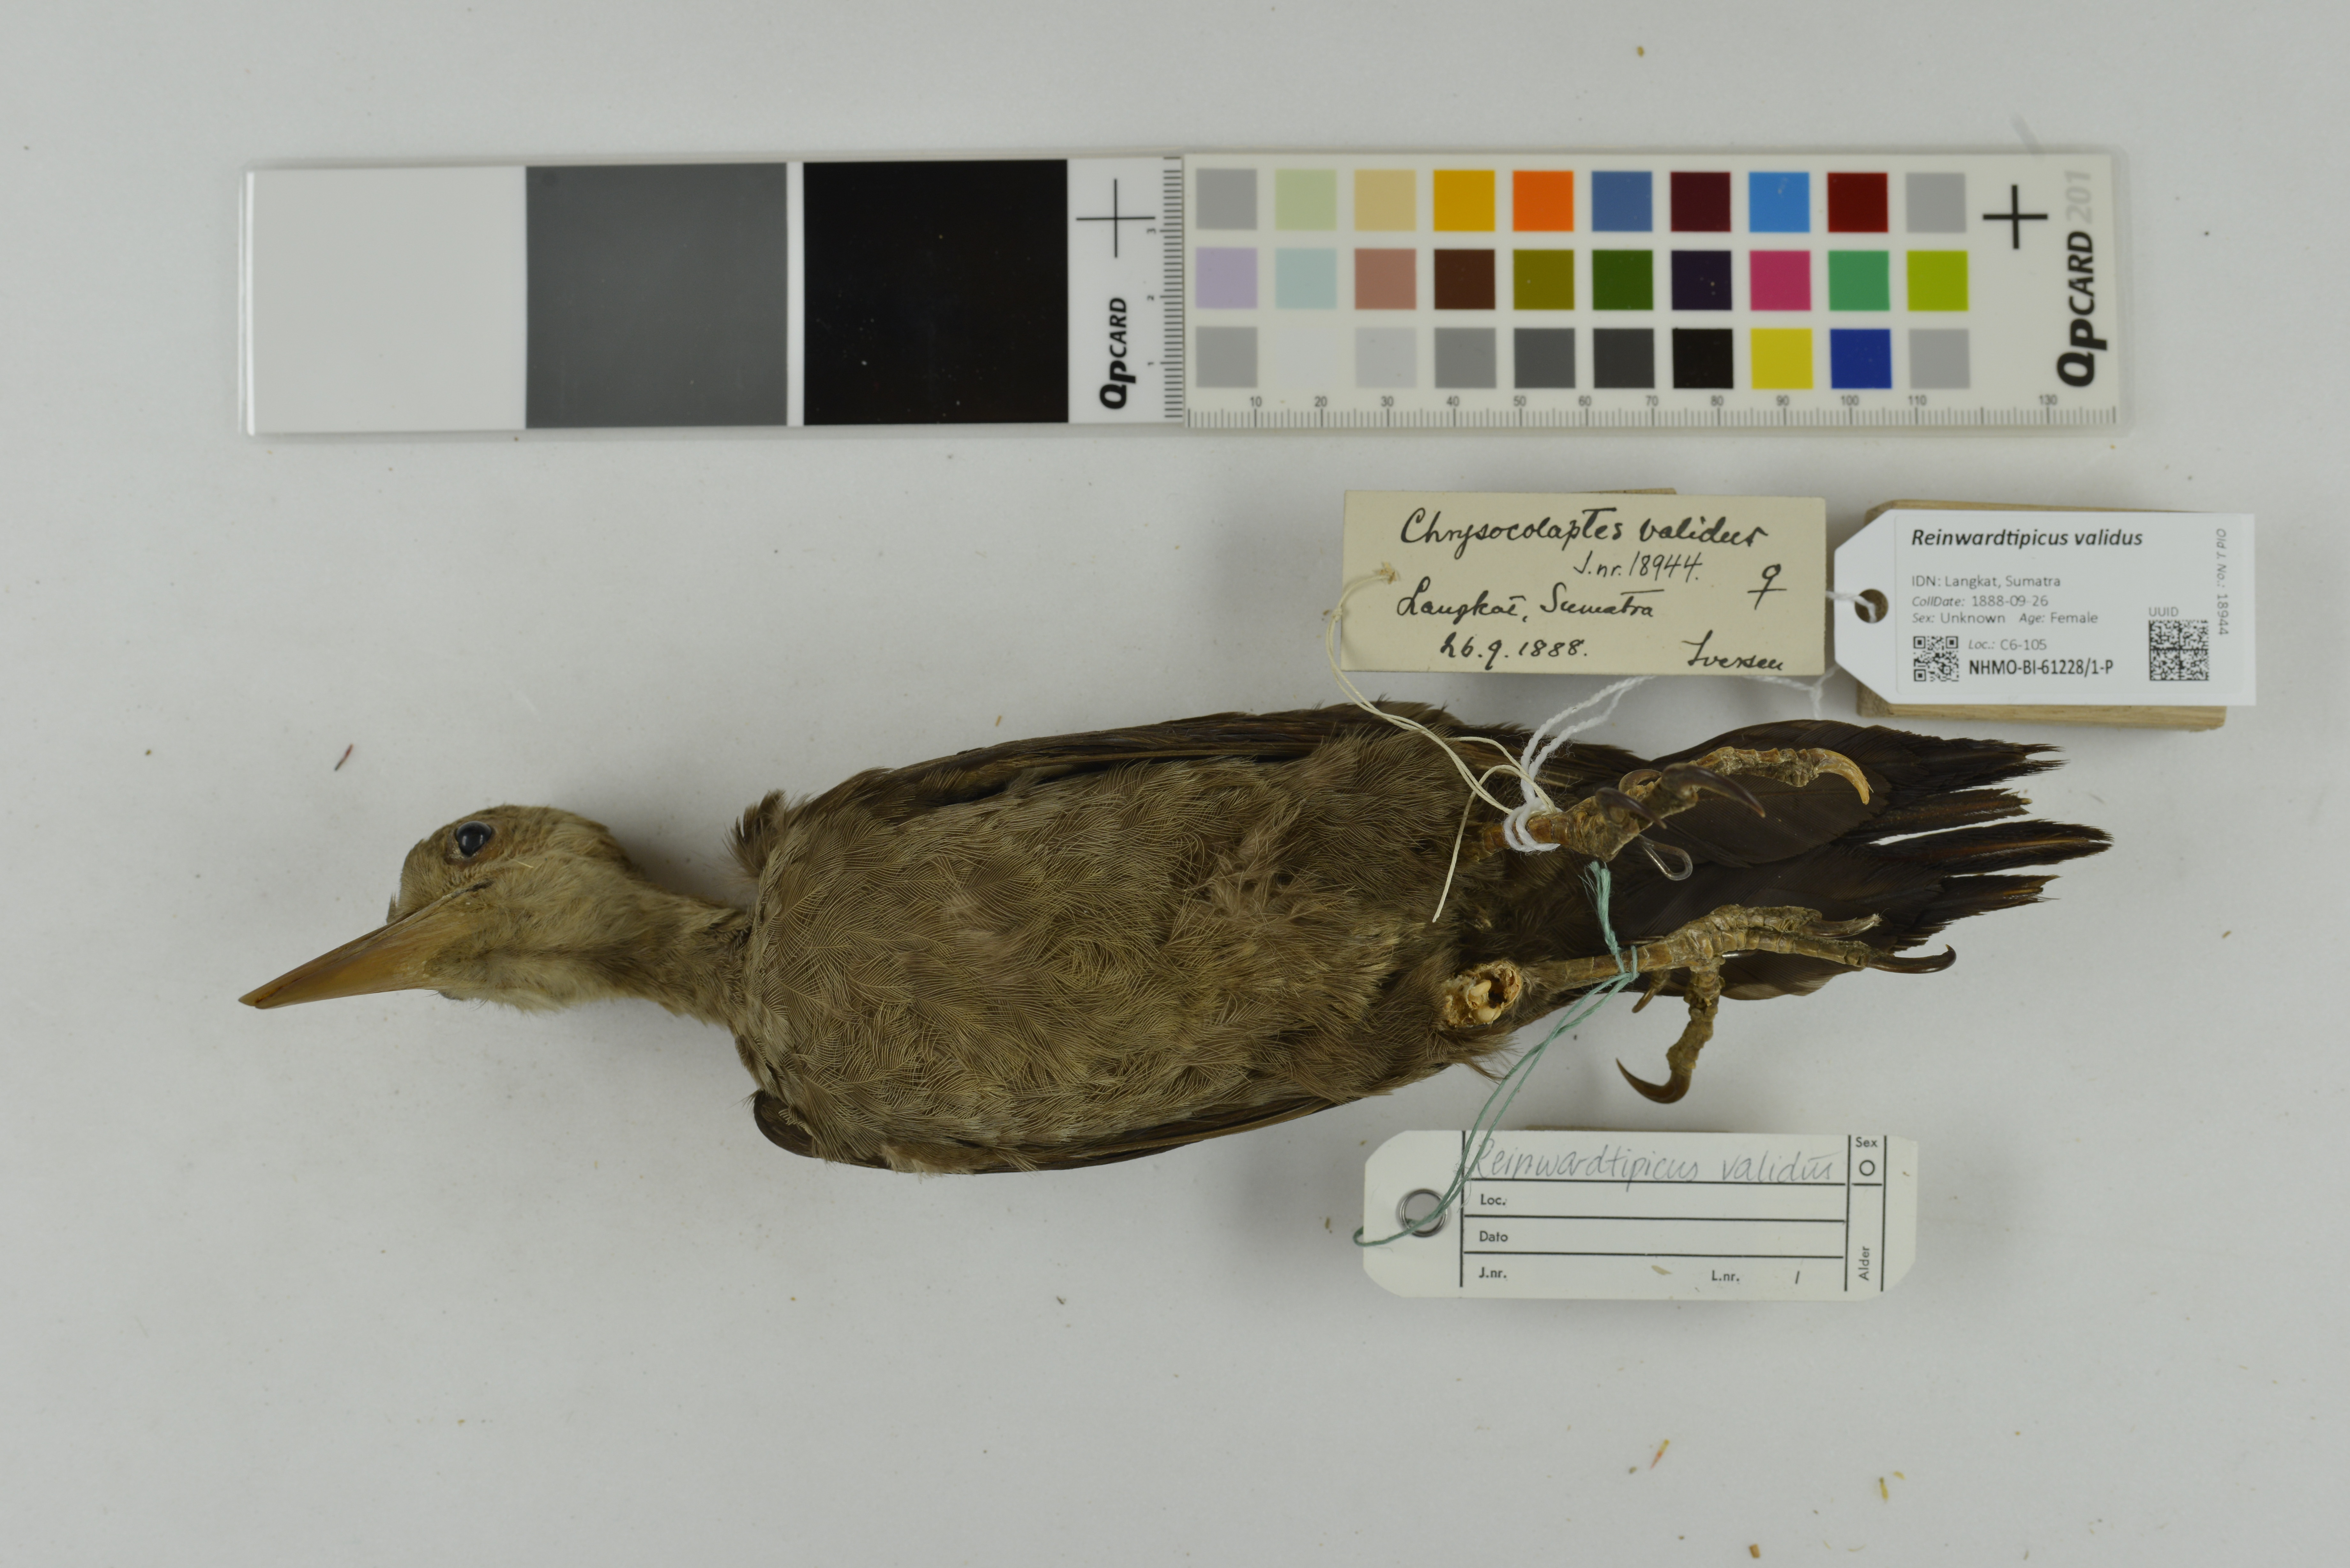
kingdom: Animalia
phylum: Chordata
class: Aves
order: Piciformes
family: Picidae
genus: Reinwardtipicus
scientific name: Reinwardtipicus validus
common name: Orange-backed woodpecker
